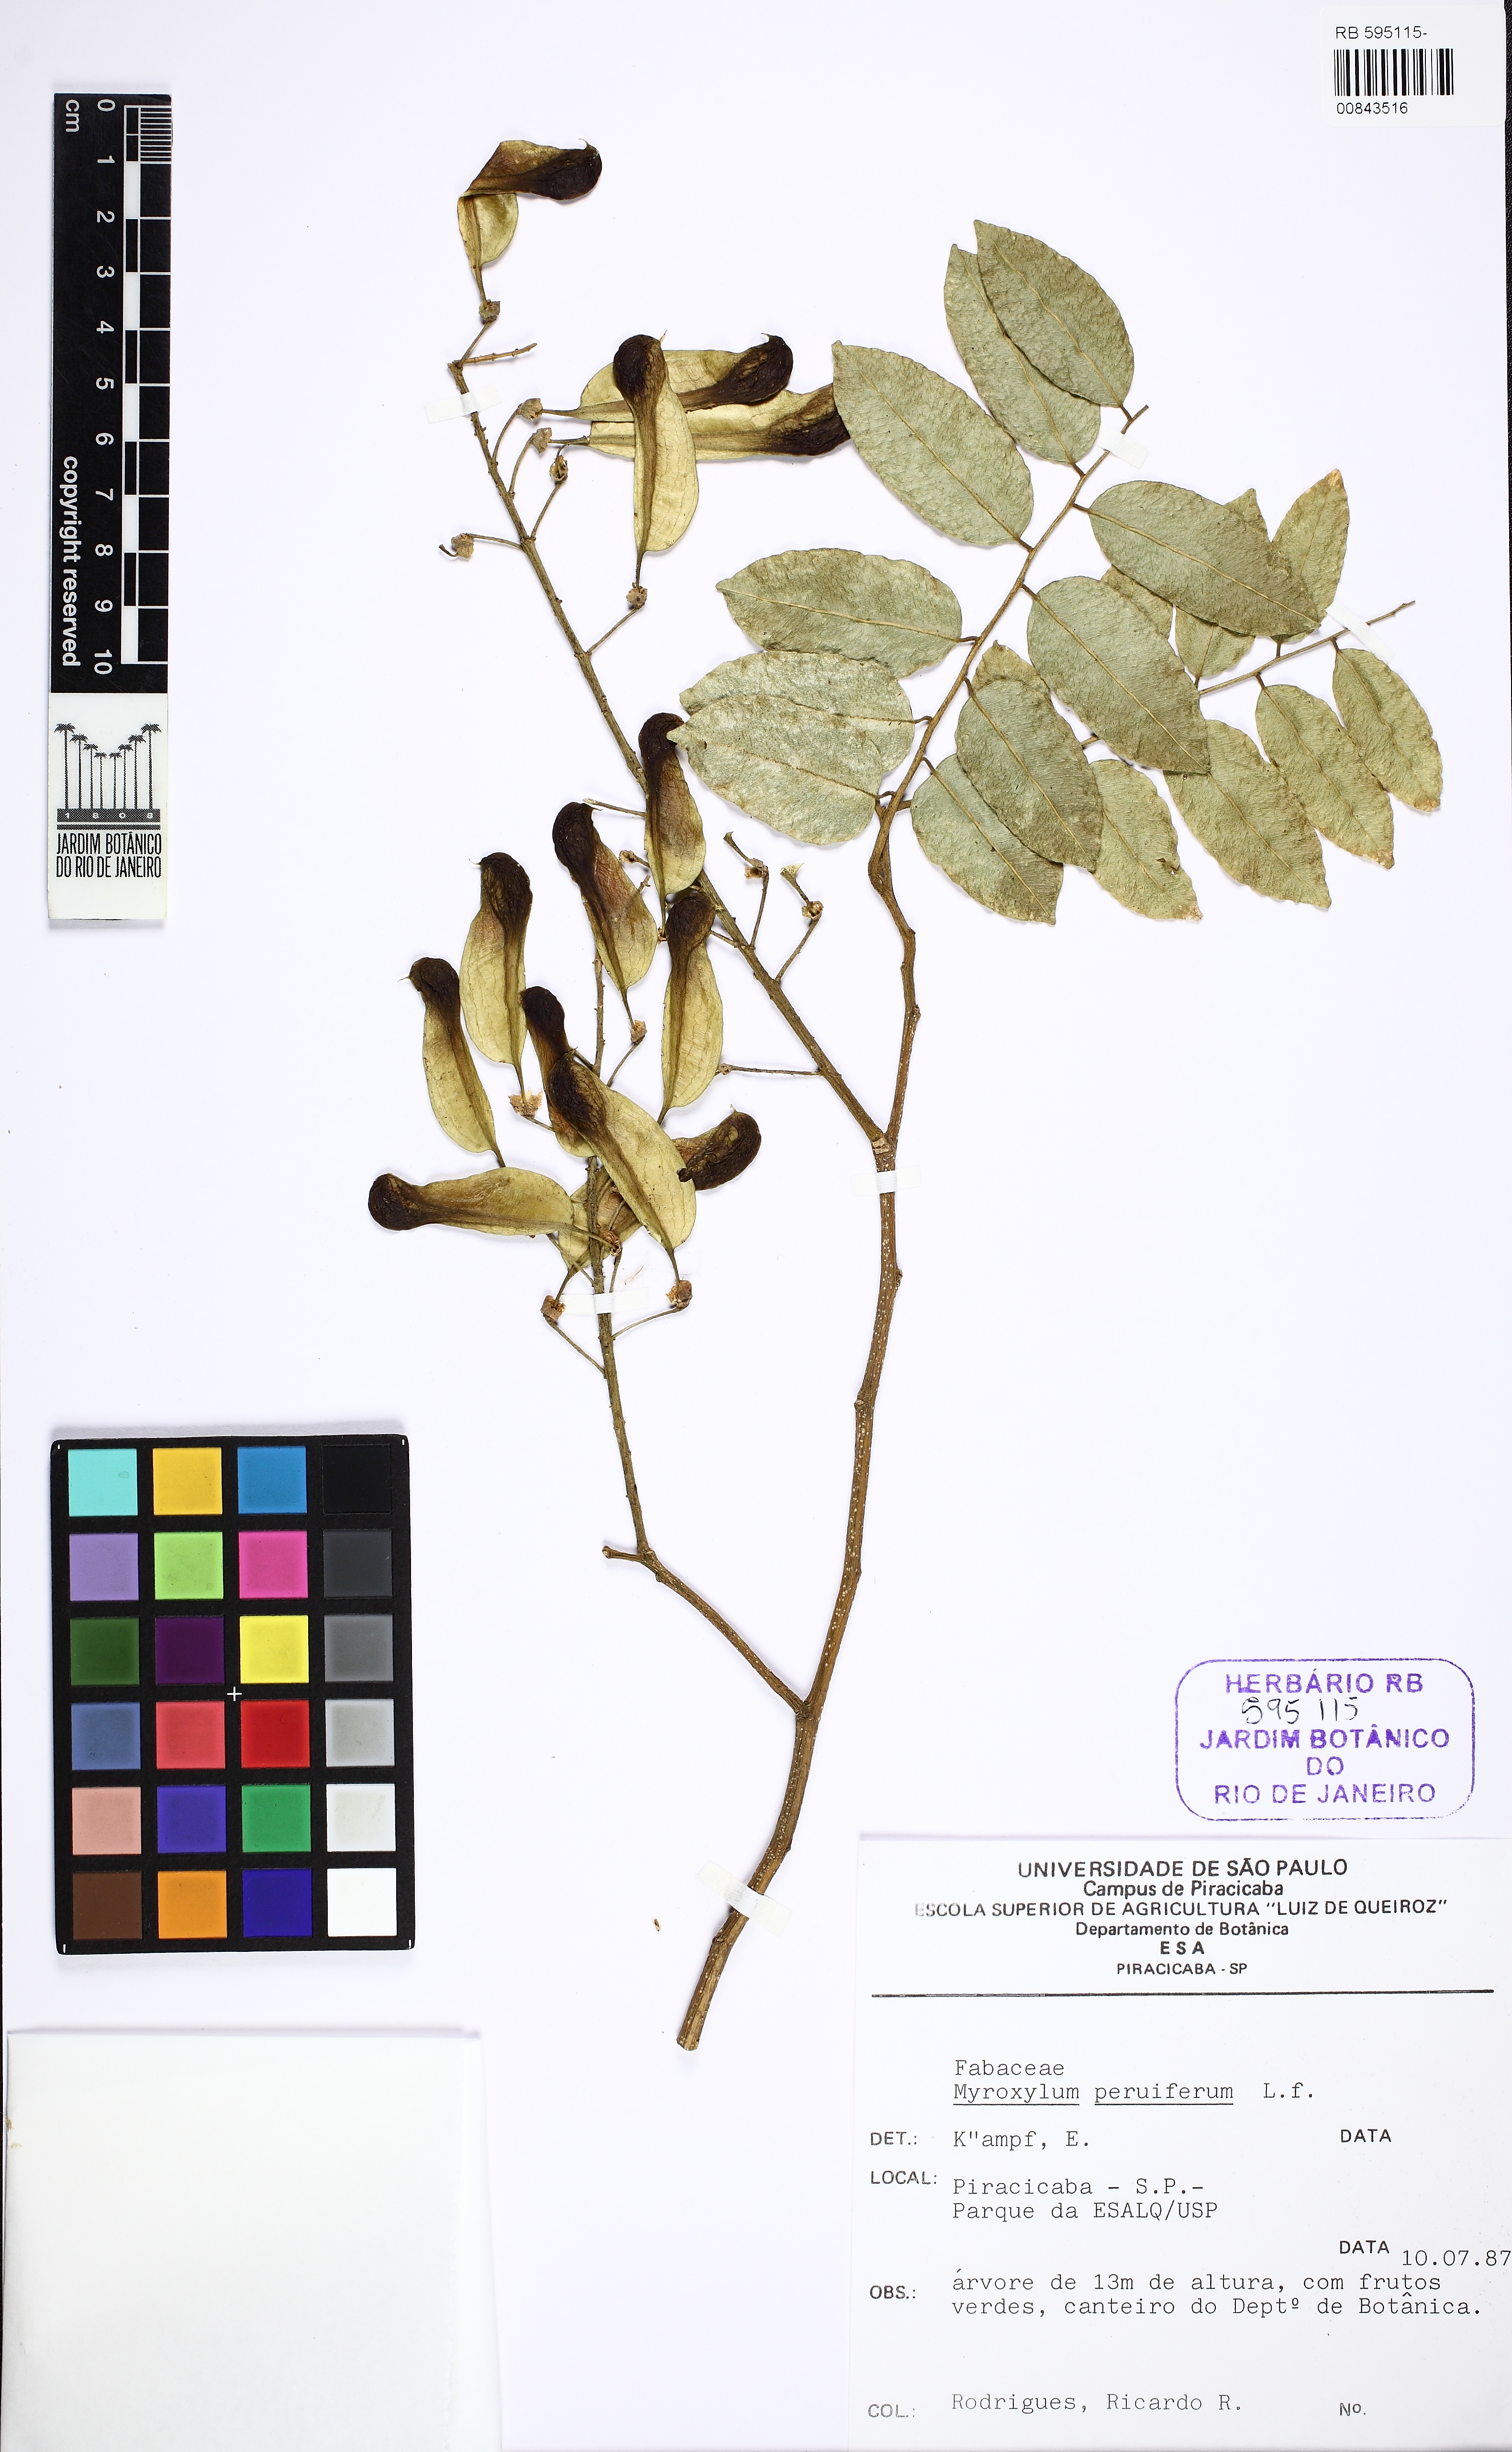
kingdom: Plantae
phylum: Tracheophyta
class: Magnoliopsida
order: Fabales
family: Fabaceae
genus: Myroxylon
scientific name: Myroxylon peruiferum
